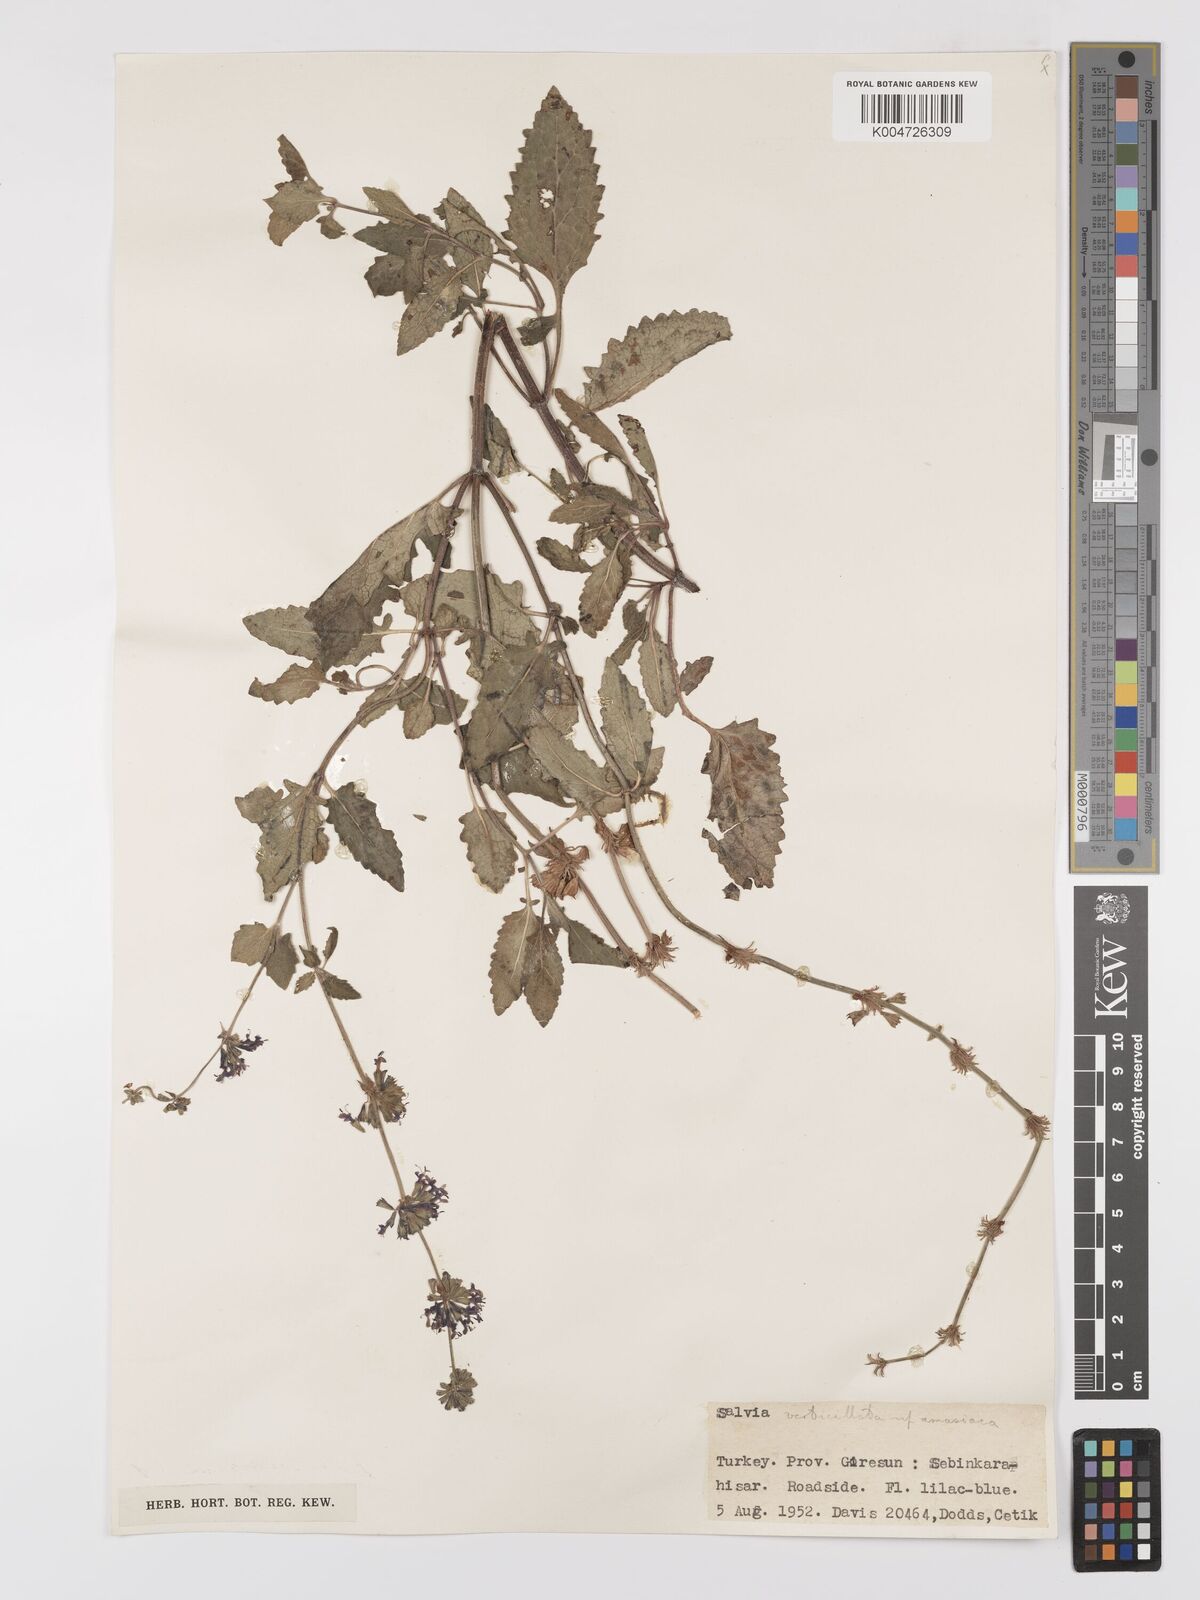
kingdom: Plantae
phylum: Tracheophyta
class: Magnoliopsida
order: Lamiales
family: Lamiaceae
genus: Salvia
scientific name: Salvia verticillata
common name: Whorled clary
